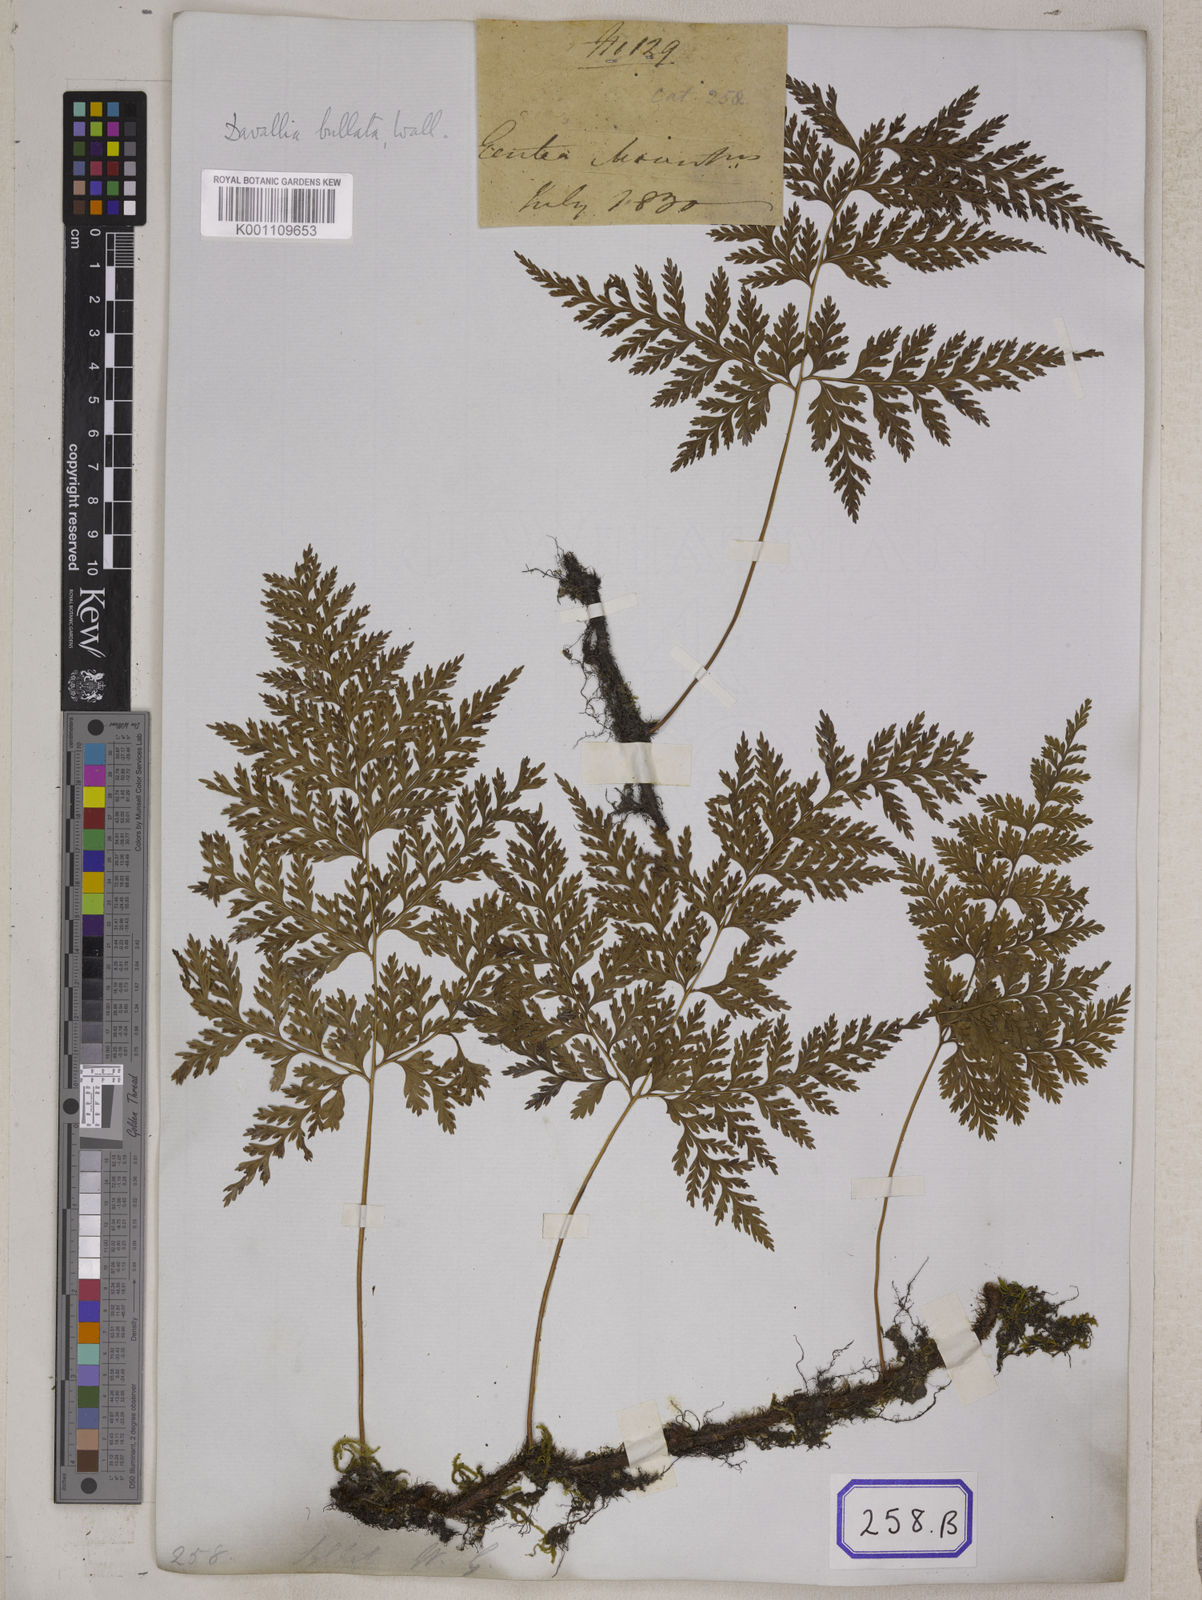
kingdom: Plantae
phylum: Tracheophyta
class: Polypodiopsida
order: Polypodiales
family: Davalliaceae
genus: Davallia
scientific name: Davallia
